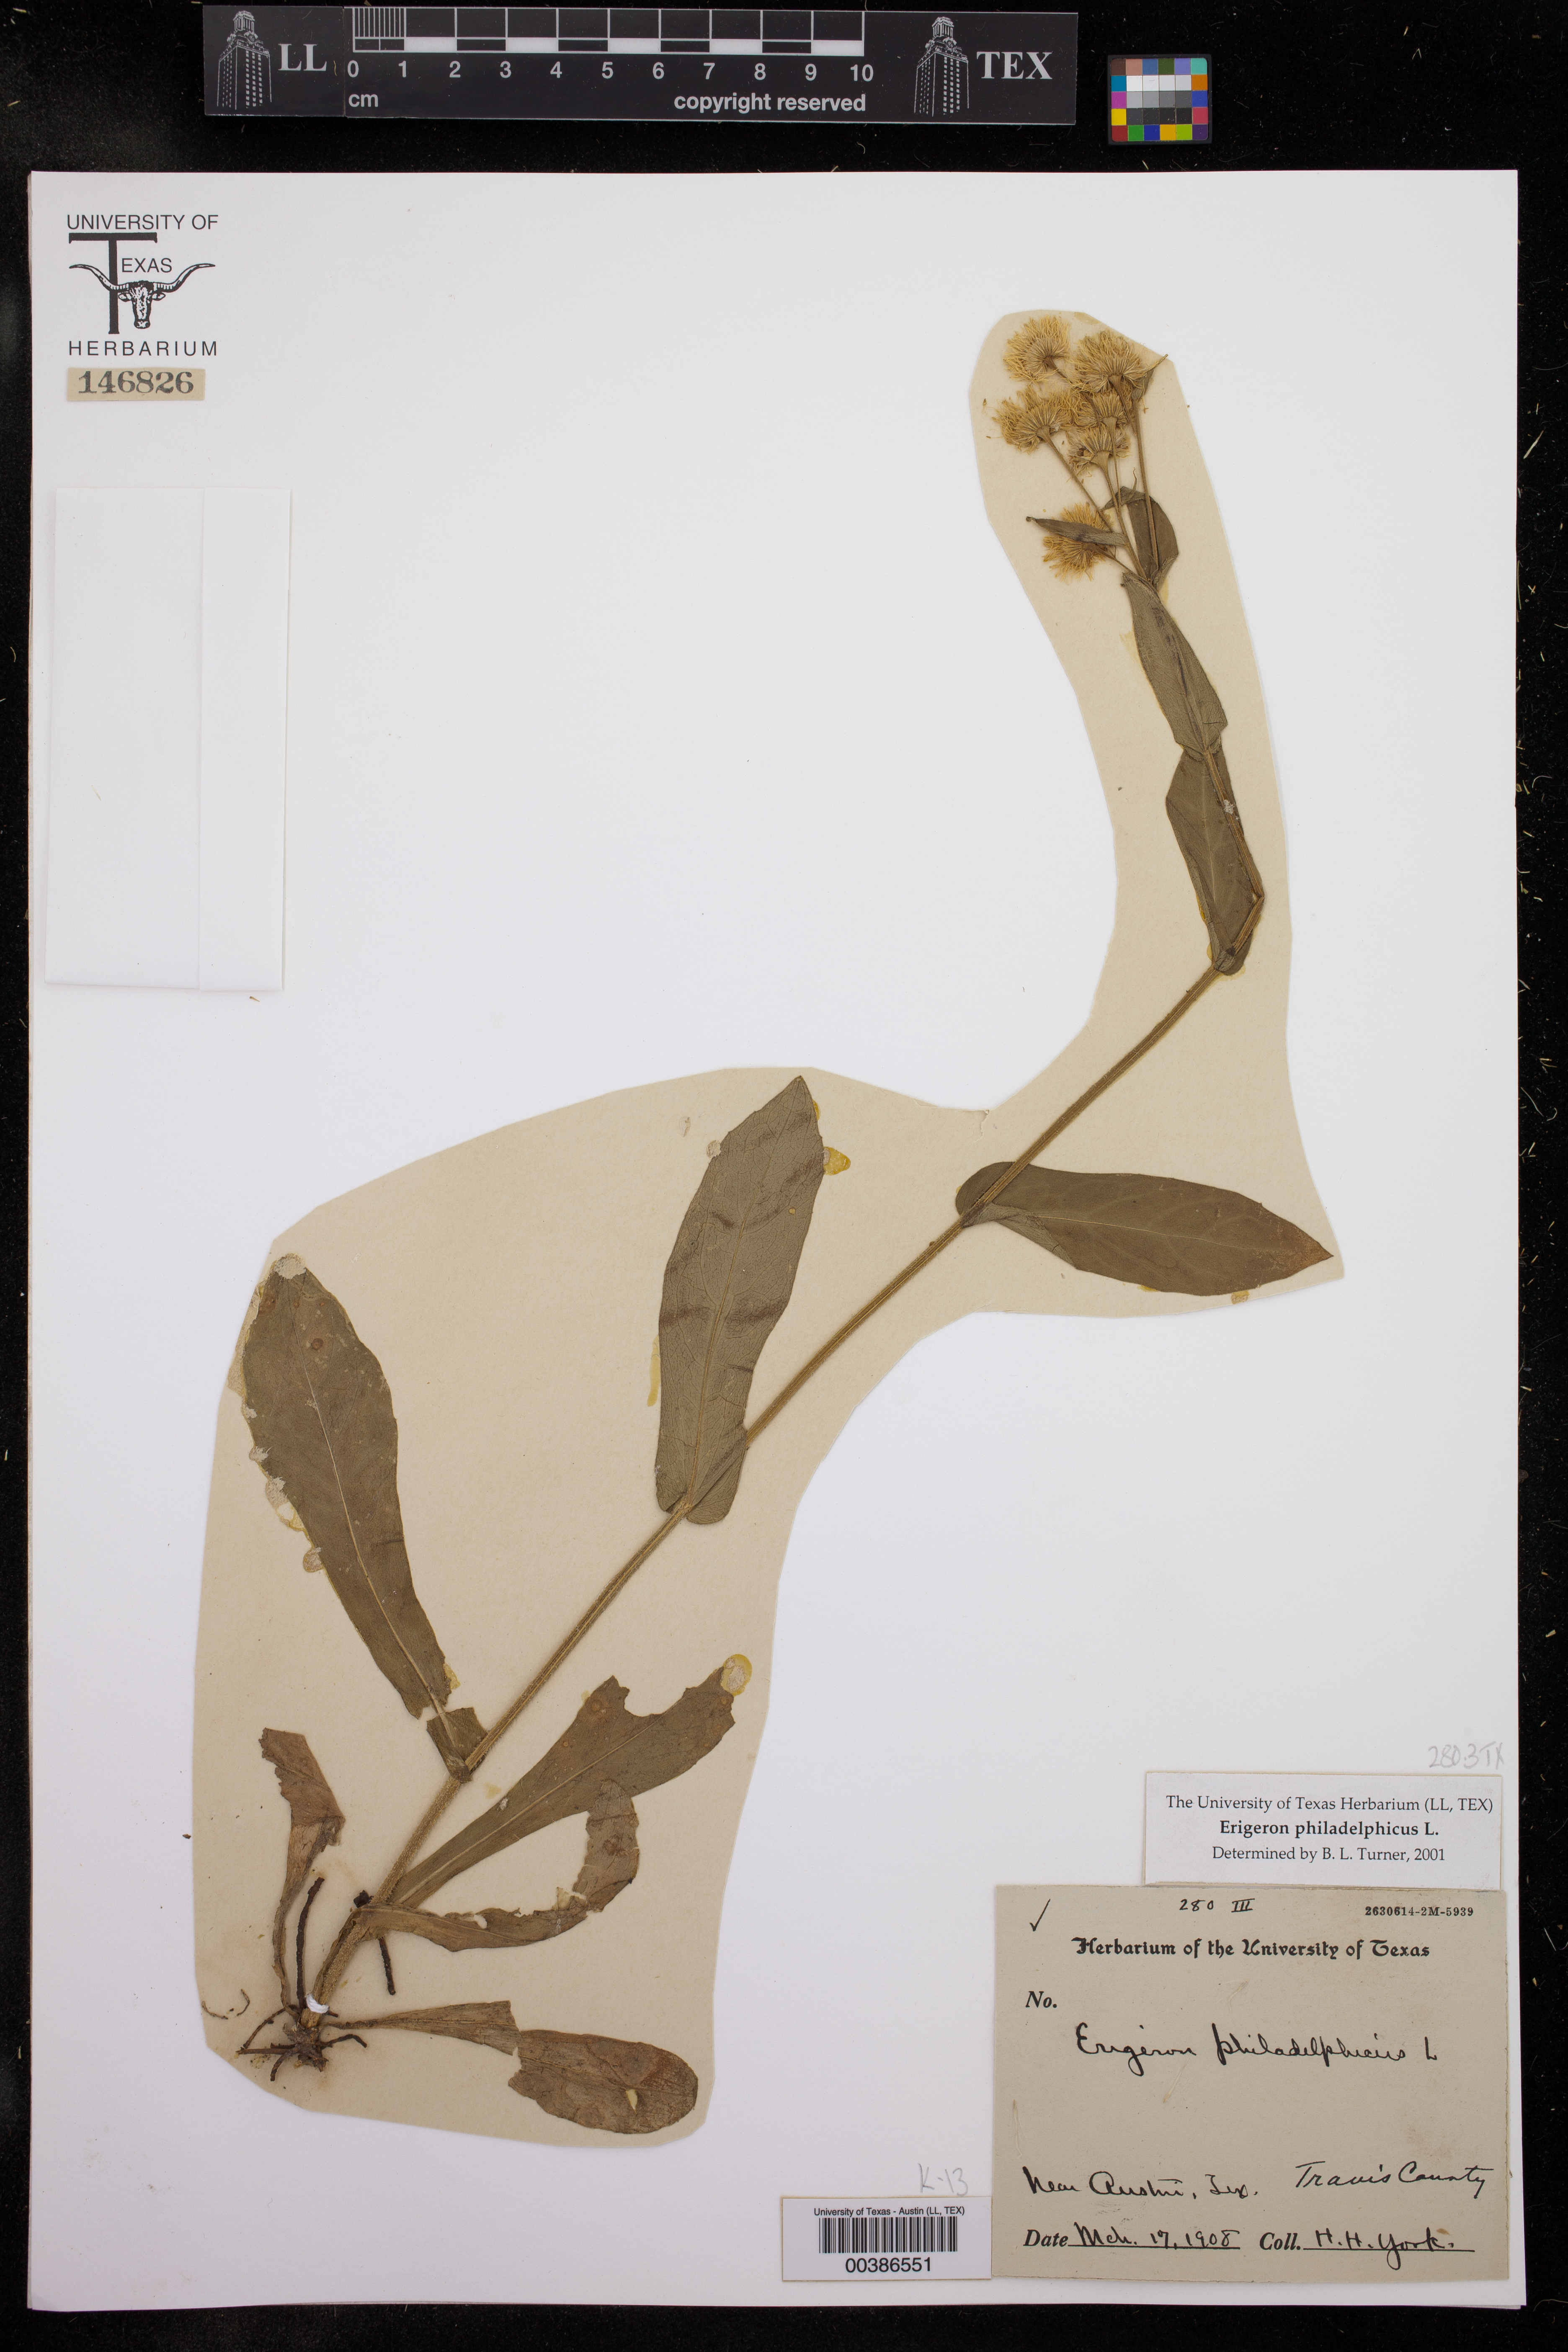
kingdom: Plantae
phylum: Tracheophyta
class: Magnoliopsida
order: Asterales
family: Asteraceae
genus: Erigeron
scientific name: Erigeron philadelphicus
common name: Robin's-plantain
